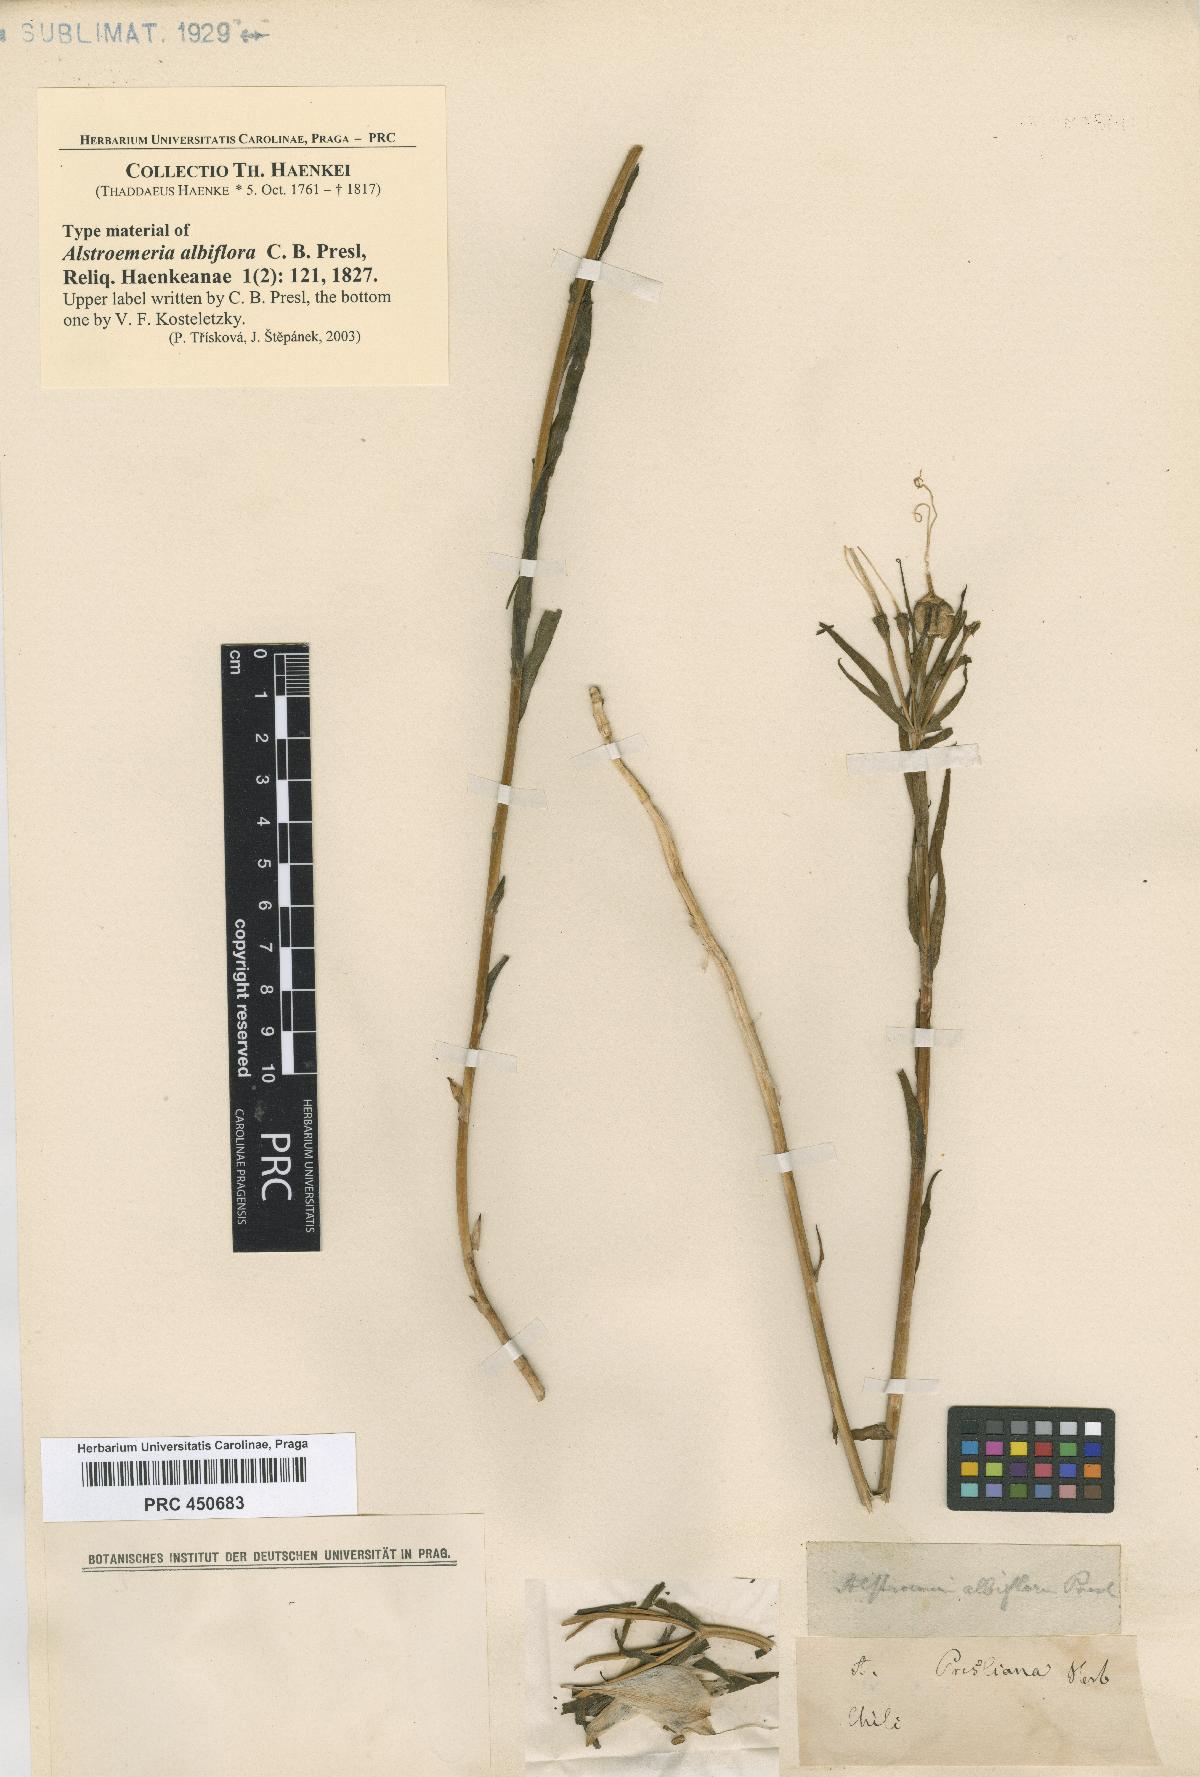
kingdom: Plantae
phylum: Tracheophyta
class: Liliopsida
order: Liliales
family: Alstroemeriaceae
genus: Alstroemeria
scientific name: Alstroemeria pallida
